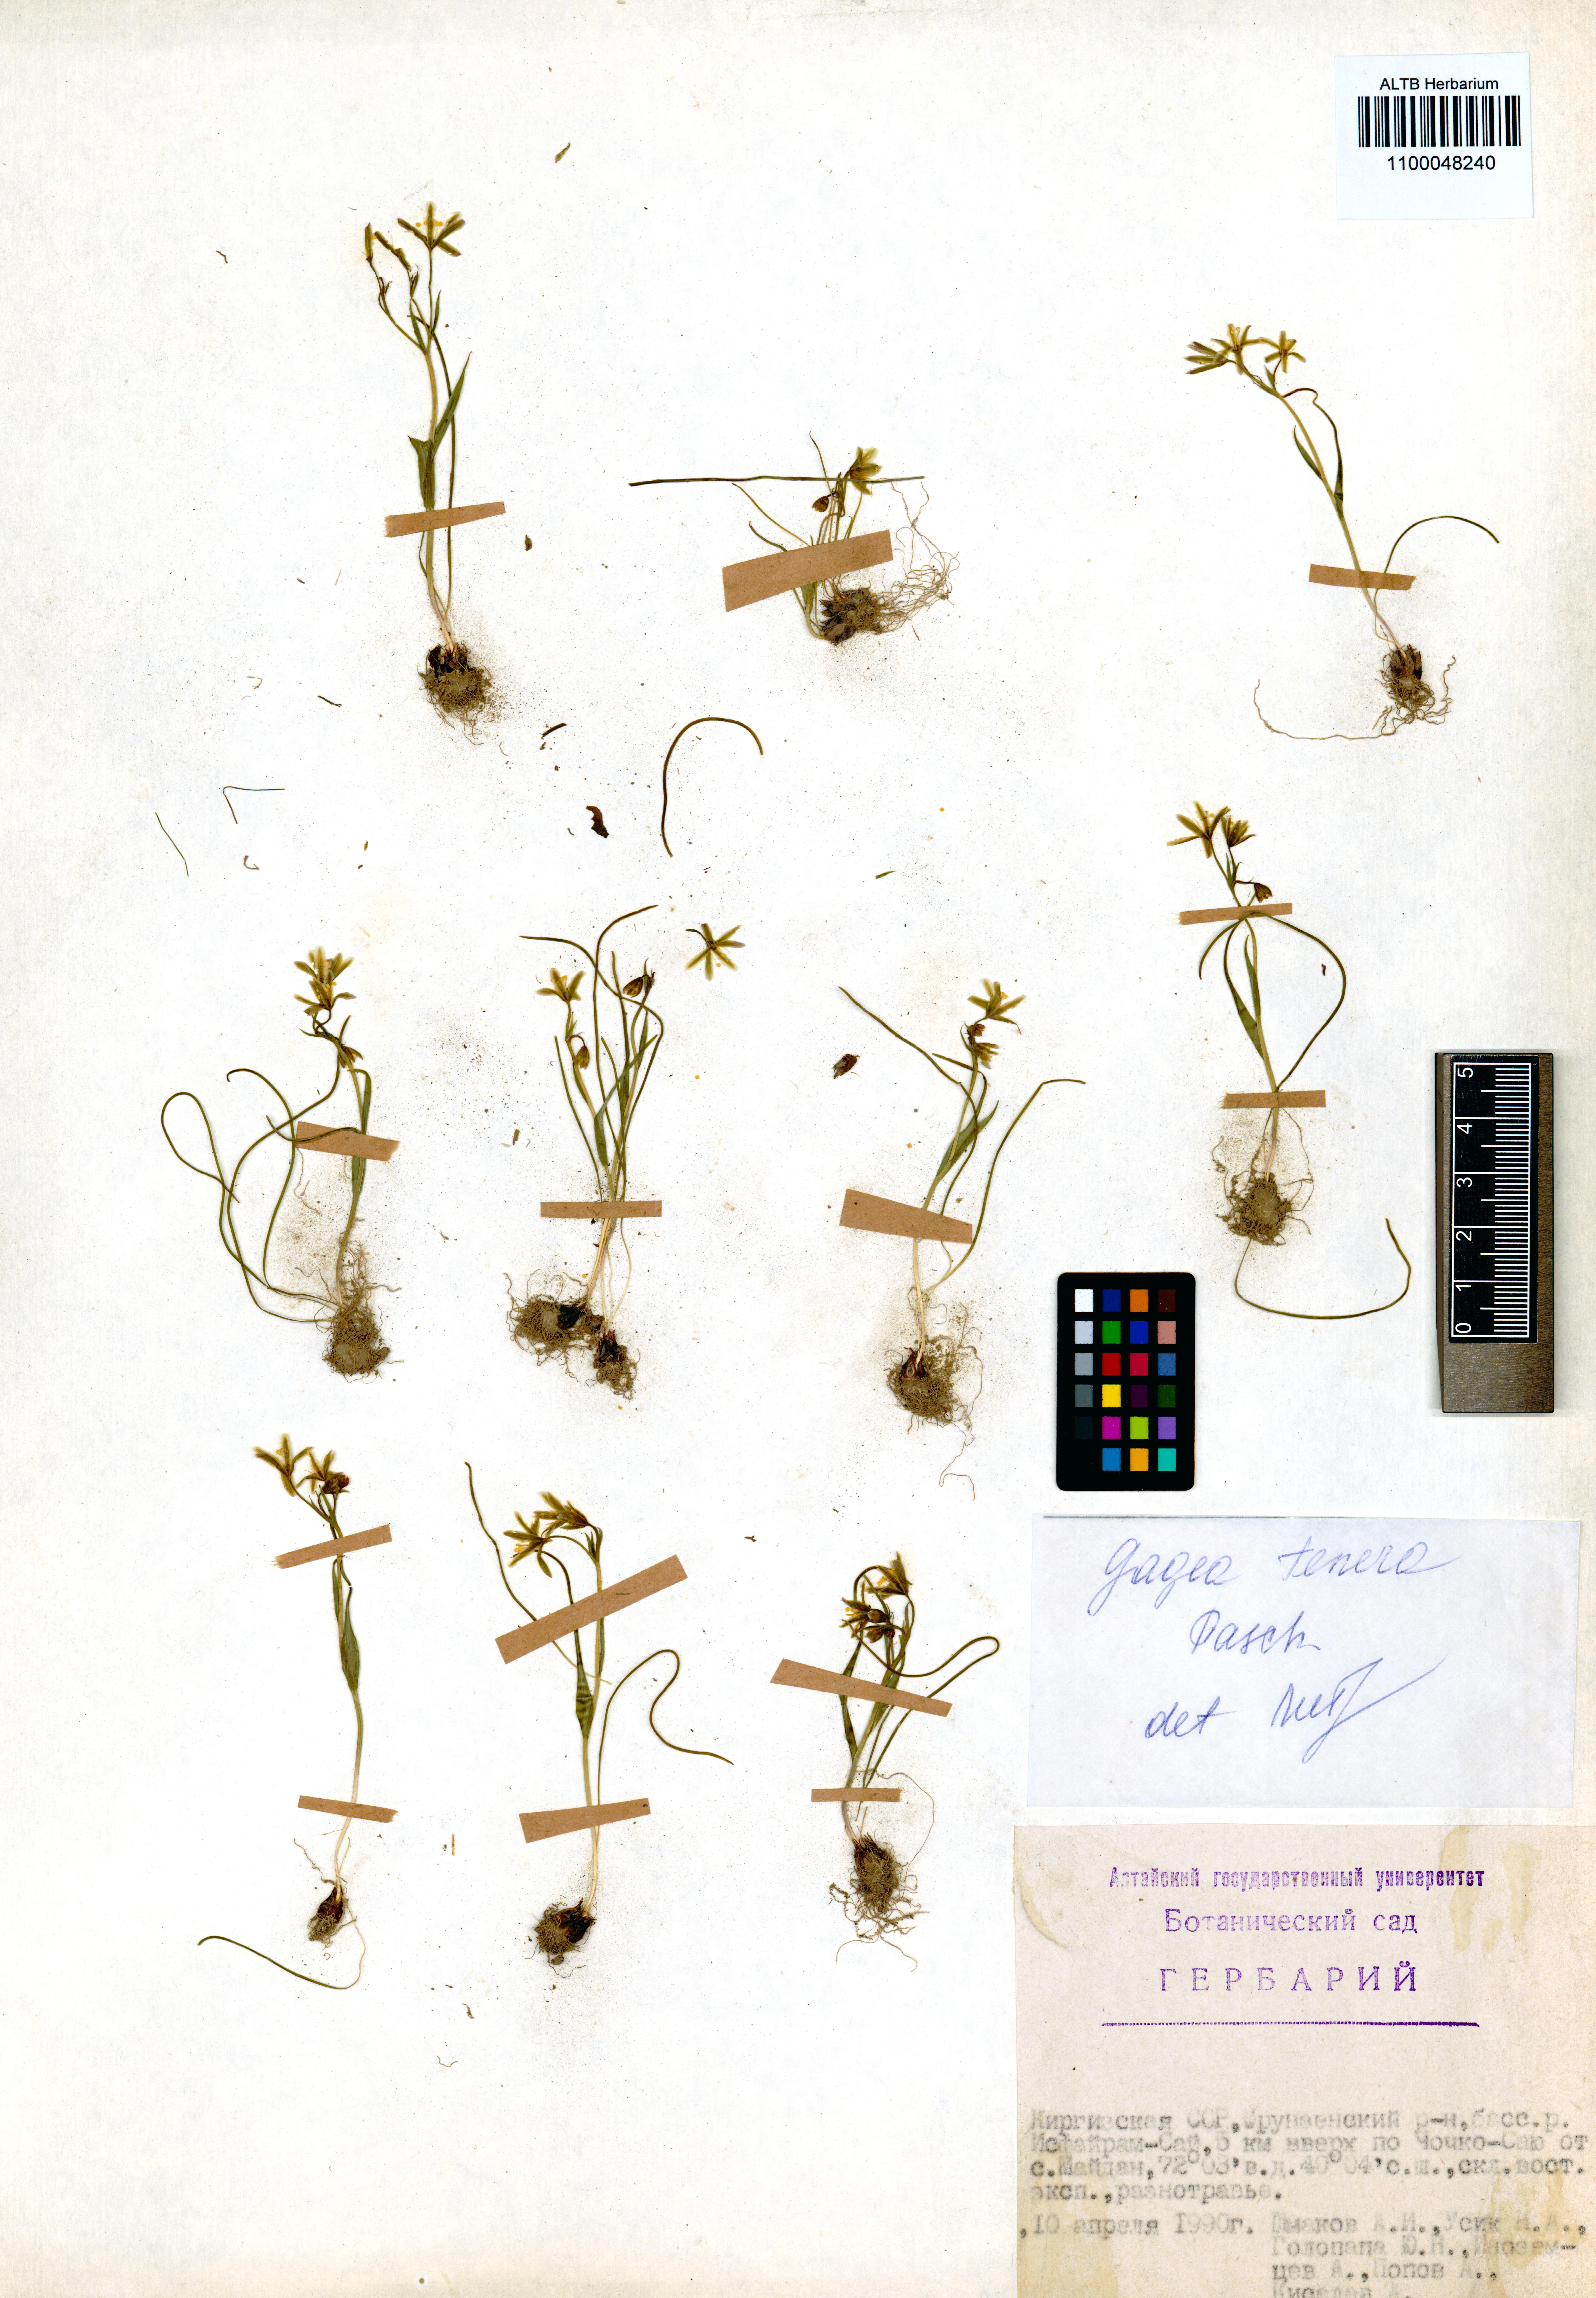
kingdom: Plantae
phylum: Tracheophyta
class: Liliopsida
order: Liliales
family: Liliaceae
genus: Gagea
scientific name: Gagea tenera
